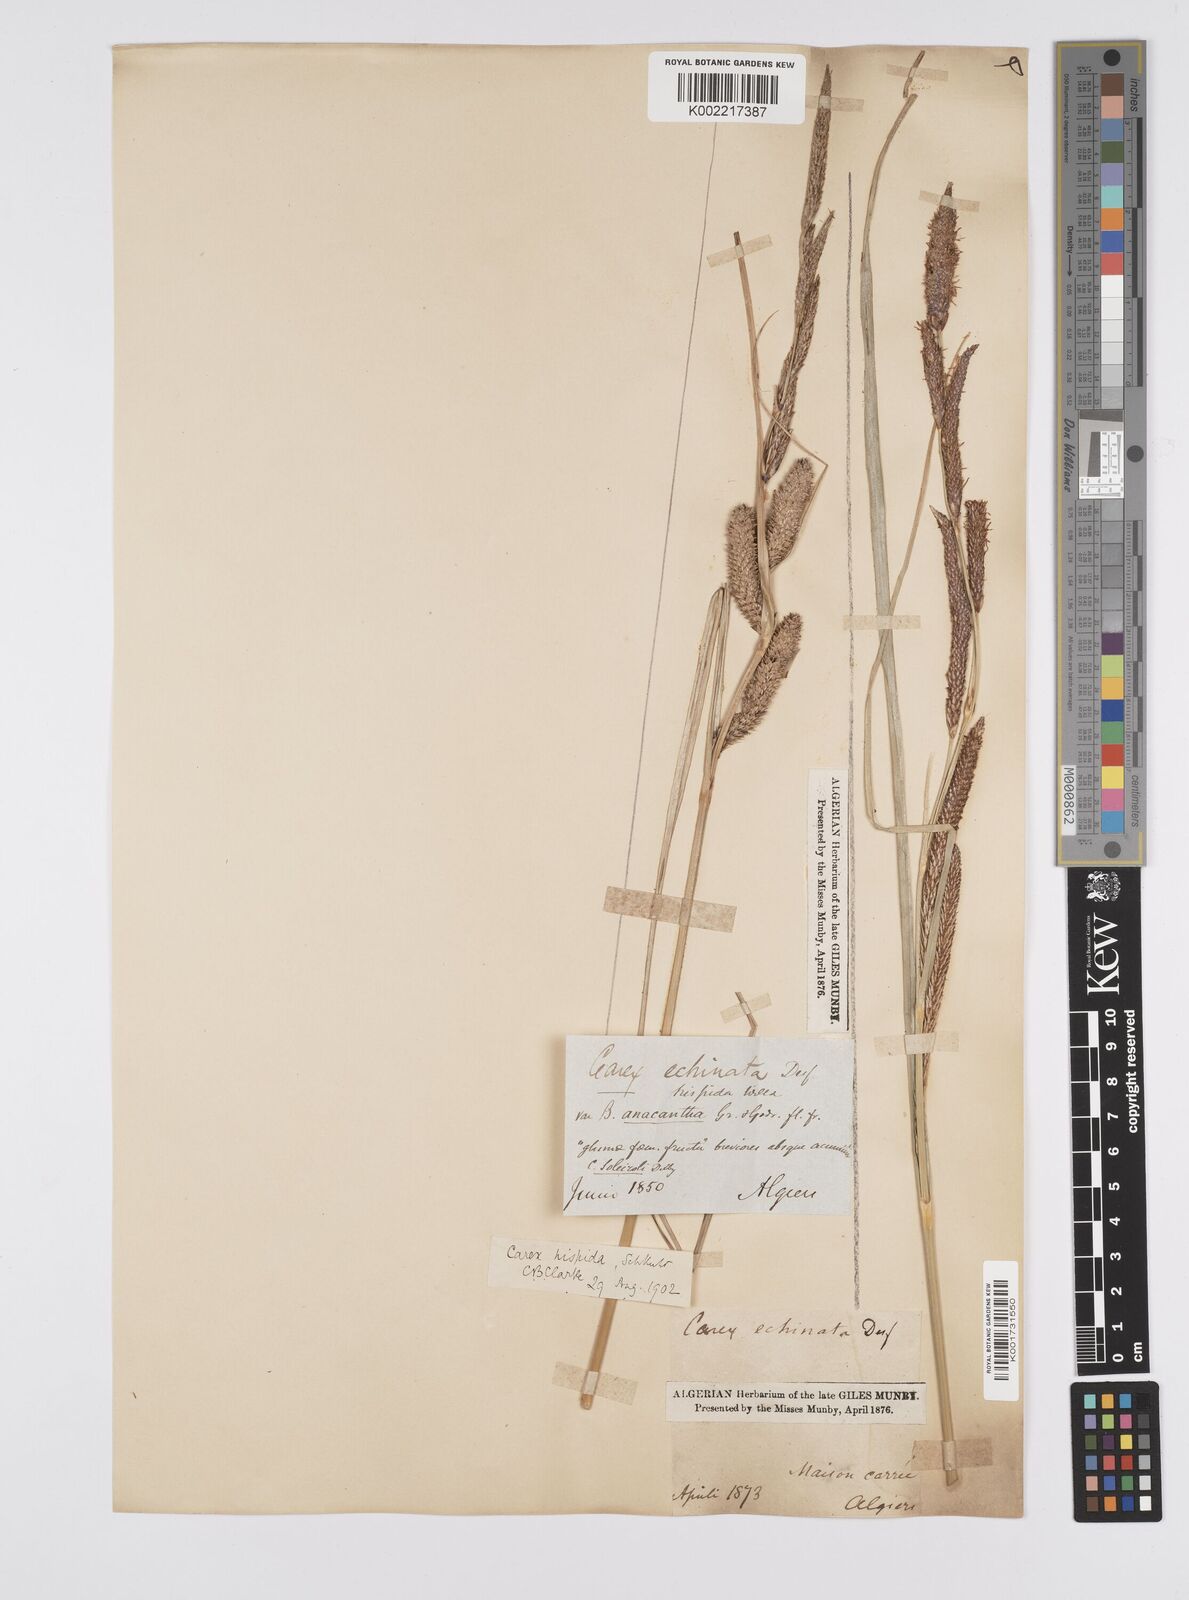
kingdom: Plantae
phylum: Tracheophyta
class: Liliopsida
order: Poales
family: Cyperaceae
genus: Carex
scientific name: Carex hispida
